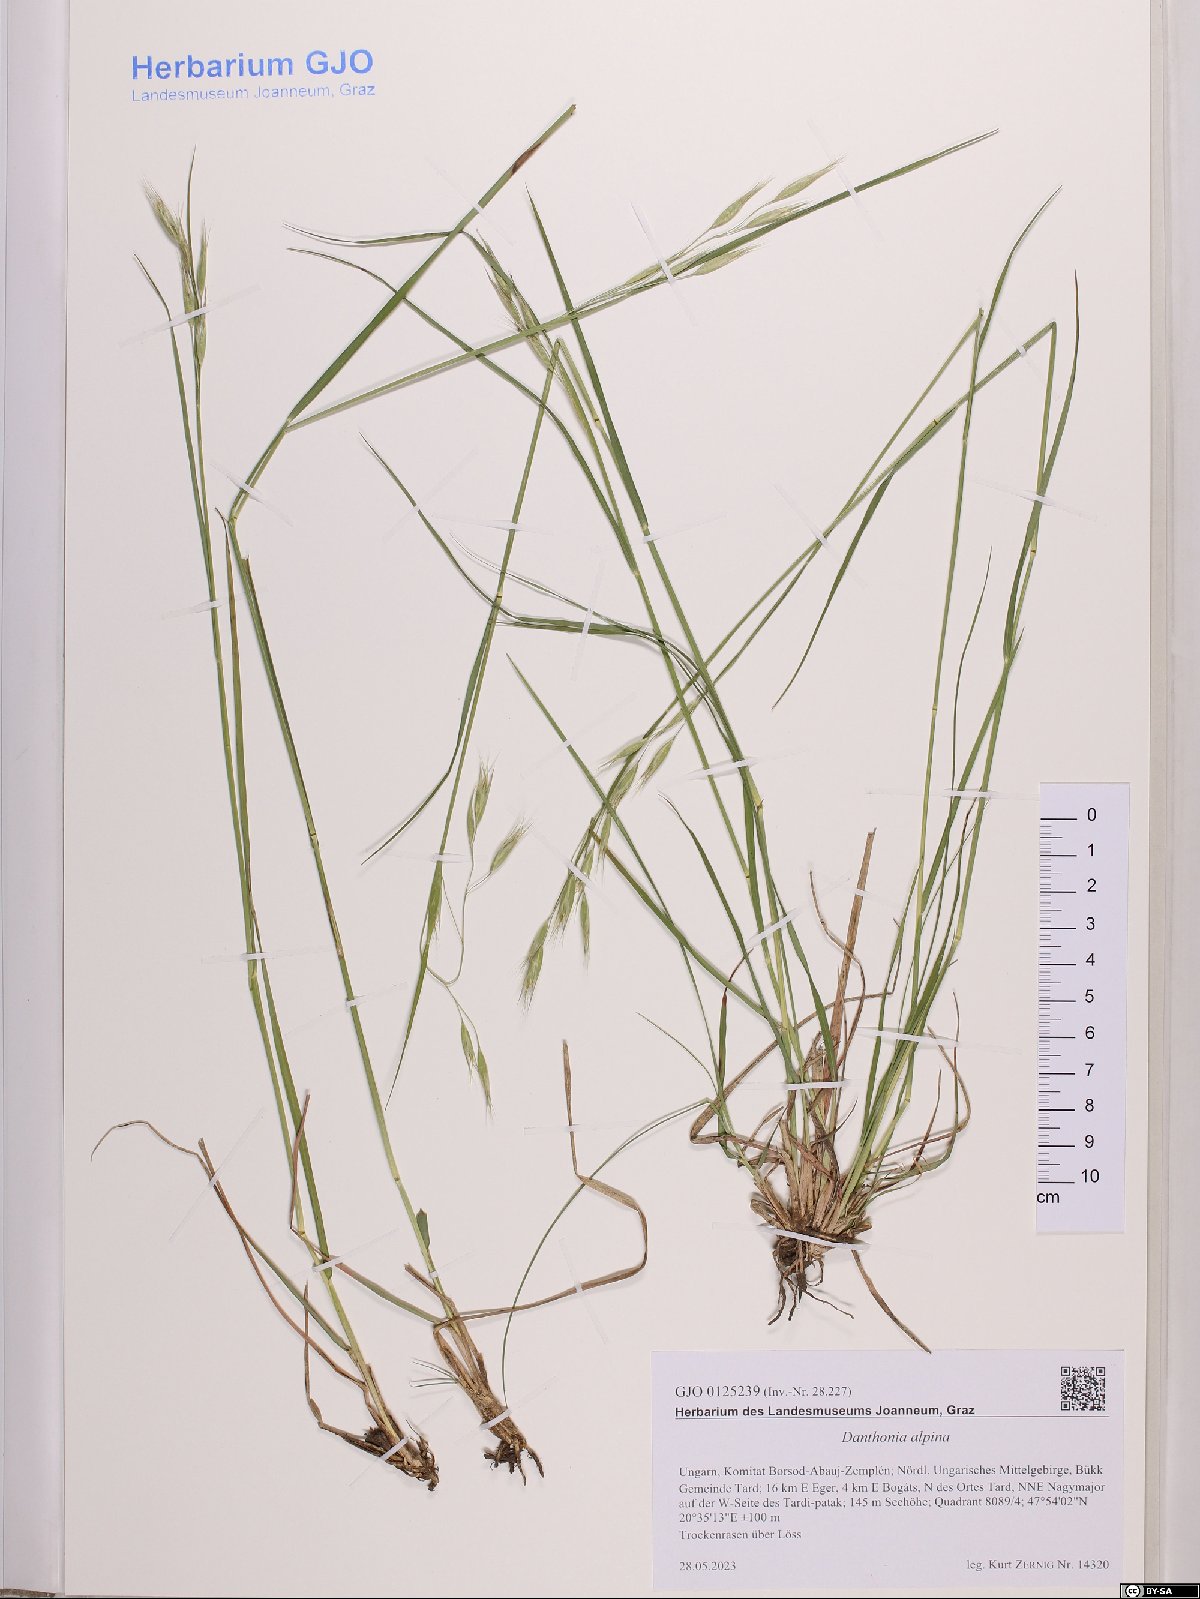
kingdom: Plantae
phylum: Tracheophyta
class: Liliopsida
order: Poales
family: Poaceae
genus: Danthonia
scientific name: Danthonia alpina
